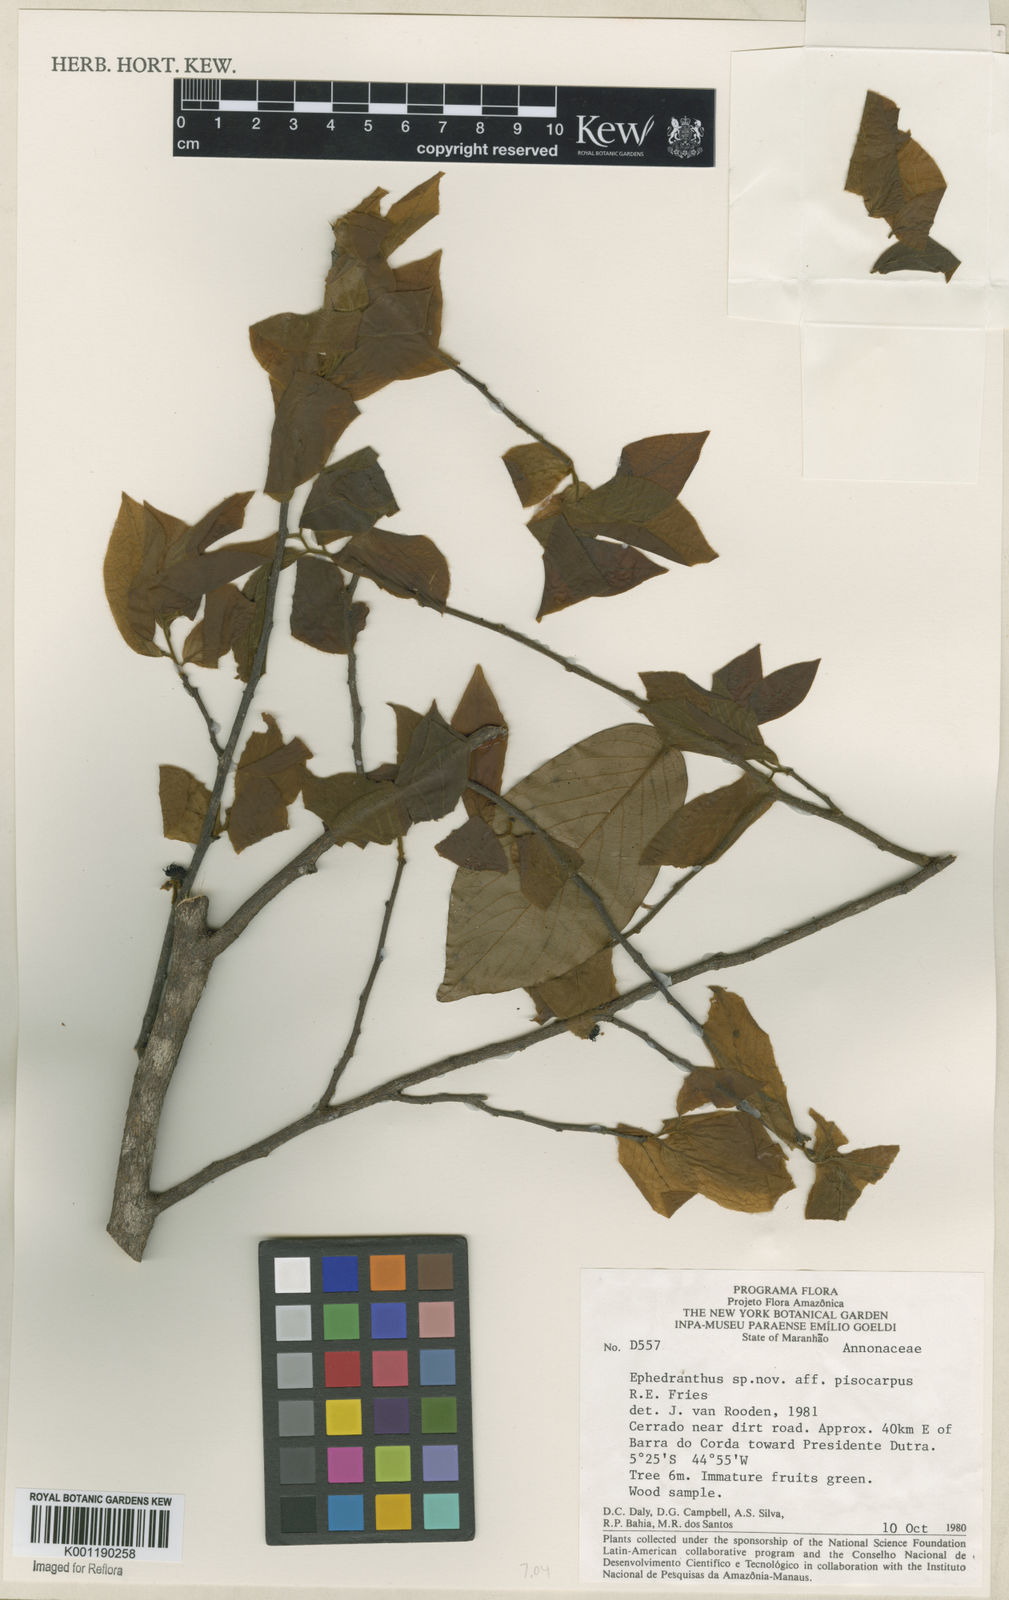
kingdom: Plantae
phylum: Tracheophyta
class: Magnoliopsida
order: Magnoliales
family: Annonaceae
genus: Ephedranthus
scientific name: Ephedranthus pisocarpus
